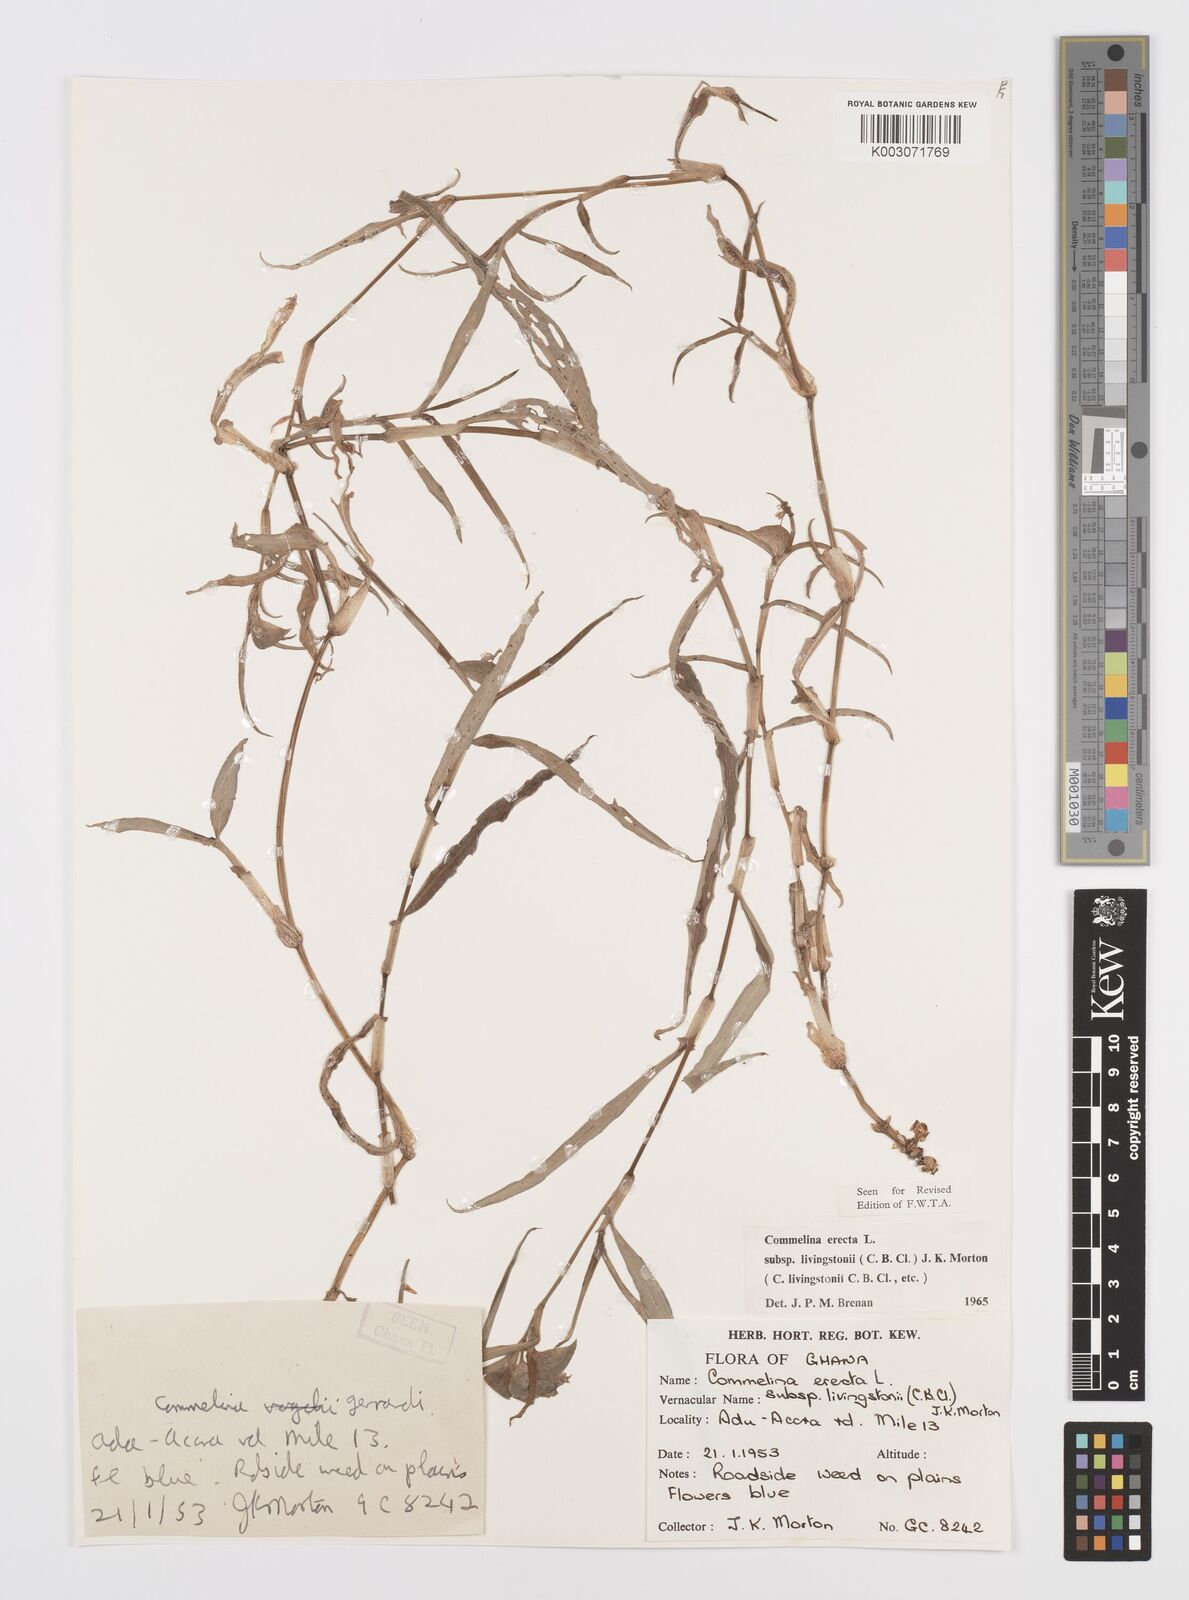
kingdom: Plantae
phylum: Tracheophyta
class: Liliopsida
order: Commelinales
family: Commelinaceae
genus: Commelina
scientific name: Commelina erecta
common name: Blousel blommetjie
